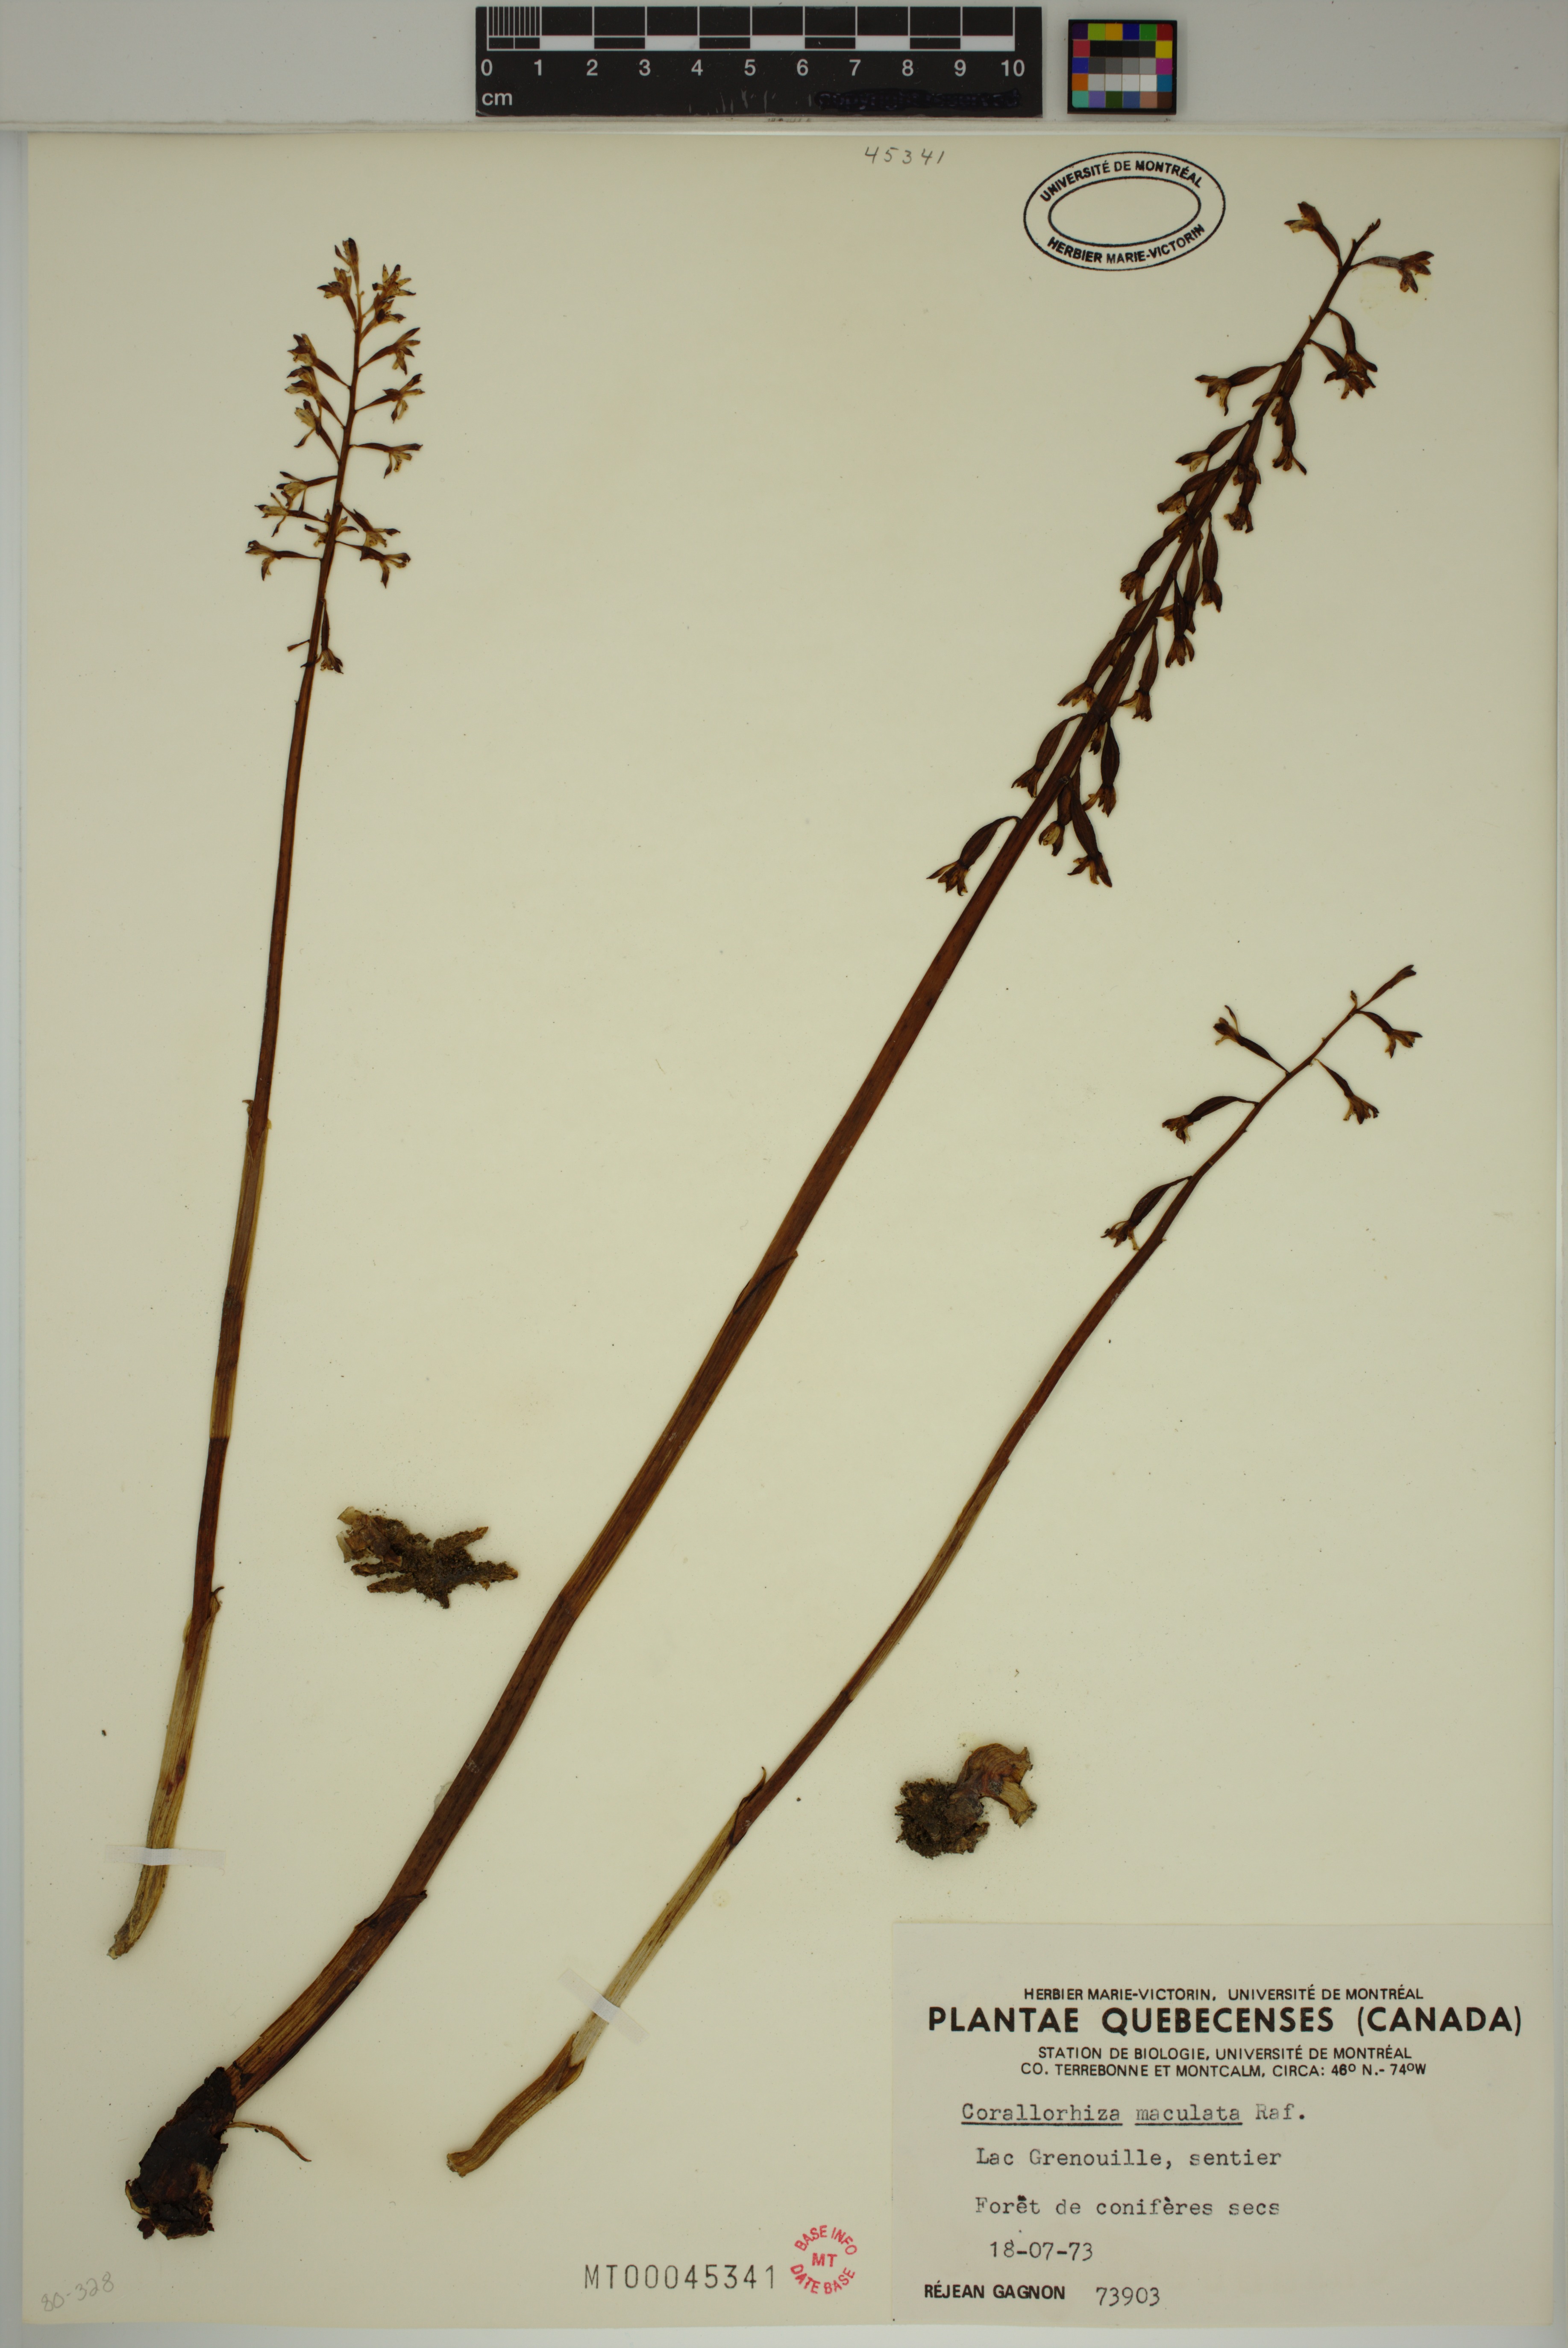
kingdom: Plantae
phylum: Tracheophyta
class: Liliopsida
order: Asparagales
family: Orchidaceae
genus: Corallorhiza
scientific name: Corallorhiza maculata
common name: Spotted coralroot
